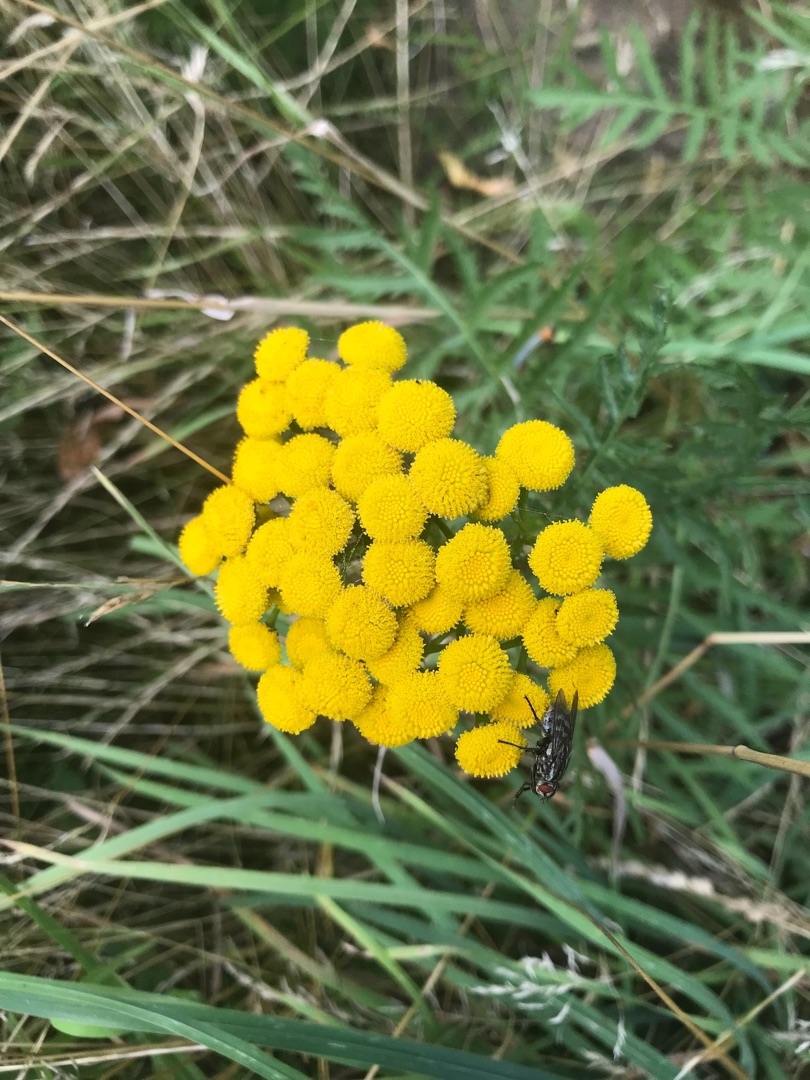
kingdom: Plantae
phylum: Tracheophyta
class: Magnoliopsida
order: Asterales
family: Asteraceae
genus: Tanacetum
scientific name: Tanacetum vulgare
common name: Rejnfan
